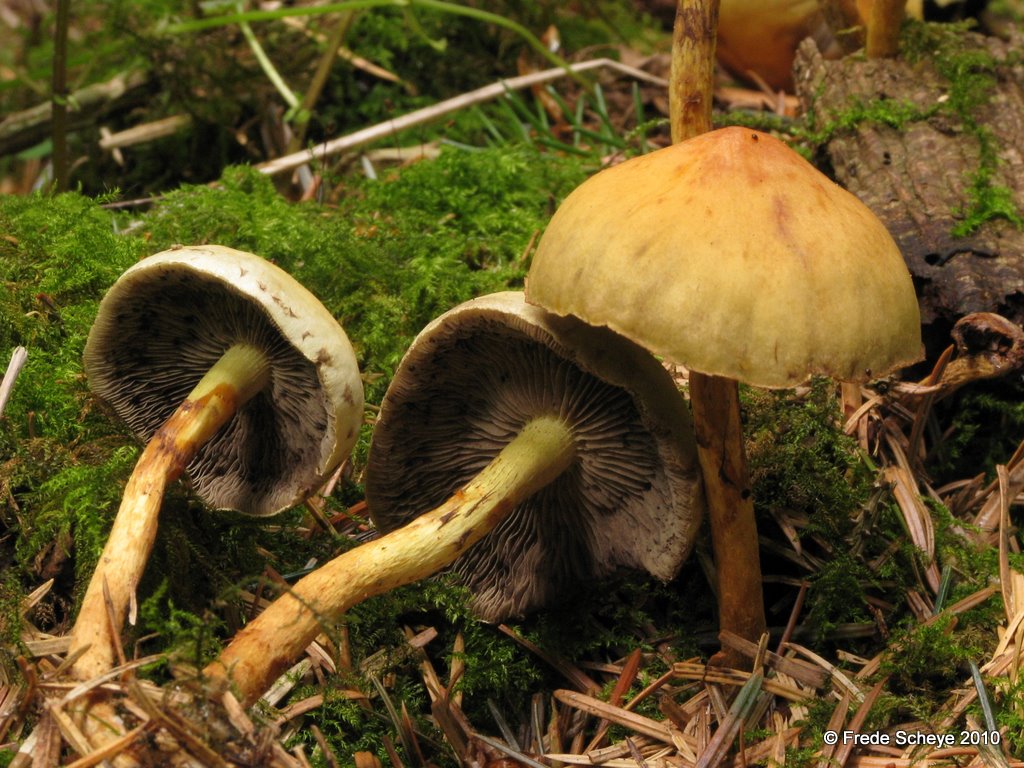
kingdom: Fungi
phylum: Basidiomycota
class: Agaricomycetes
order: Agaricales
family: Strophariaceae
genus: Hypholoma
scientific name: Hypholoma fasciculare
